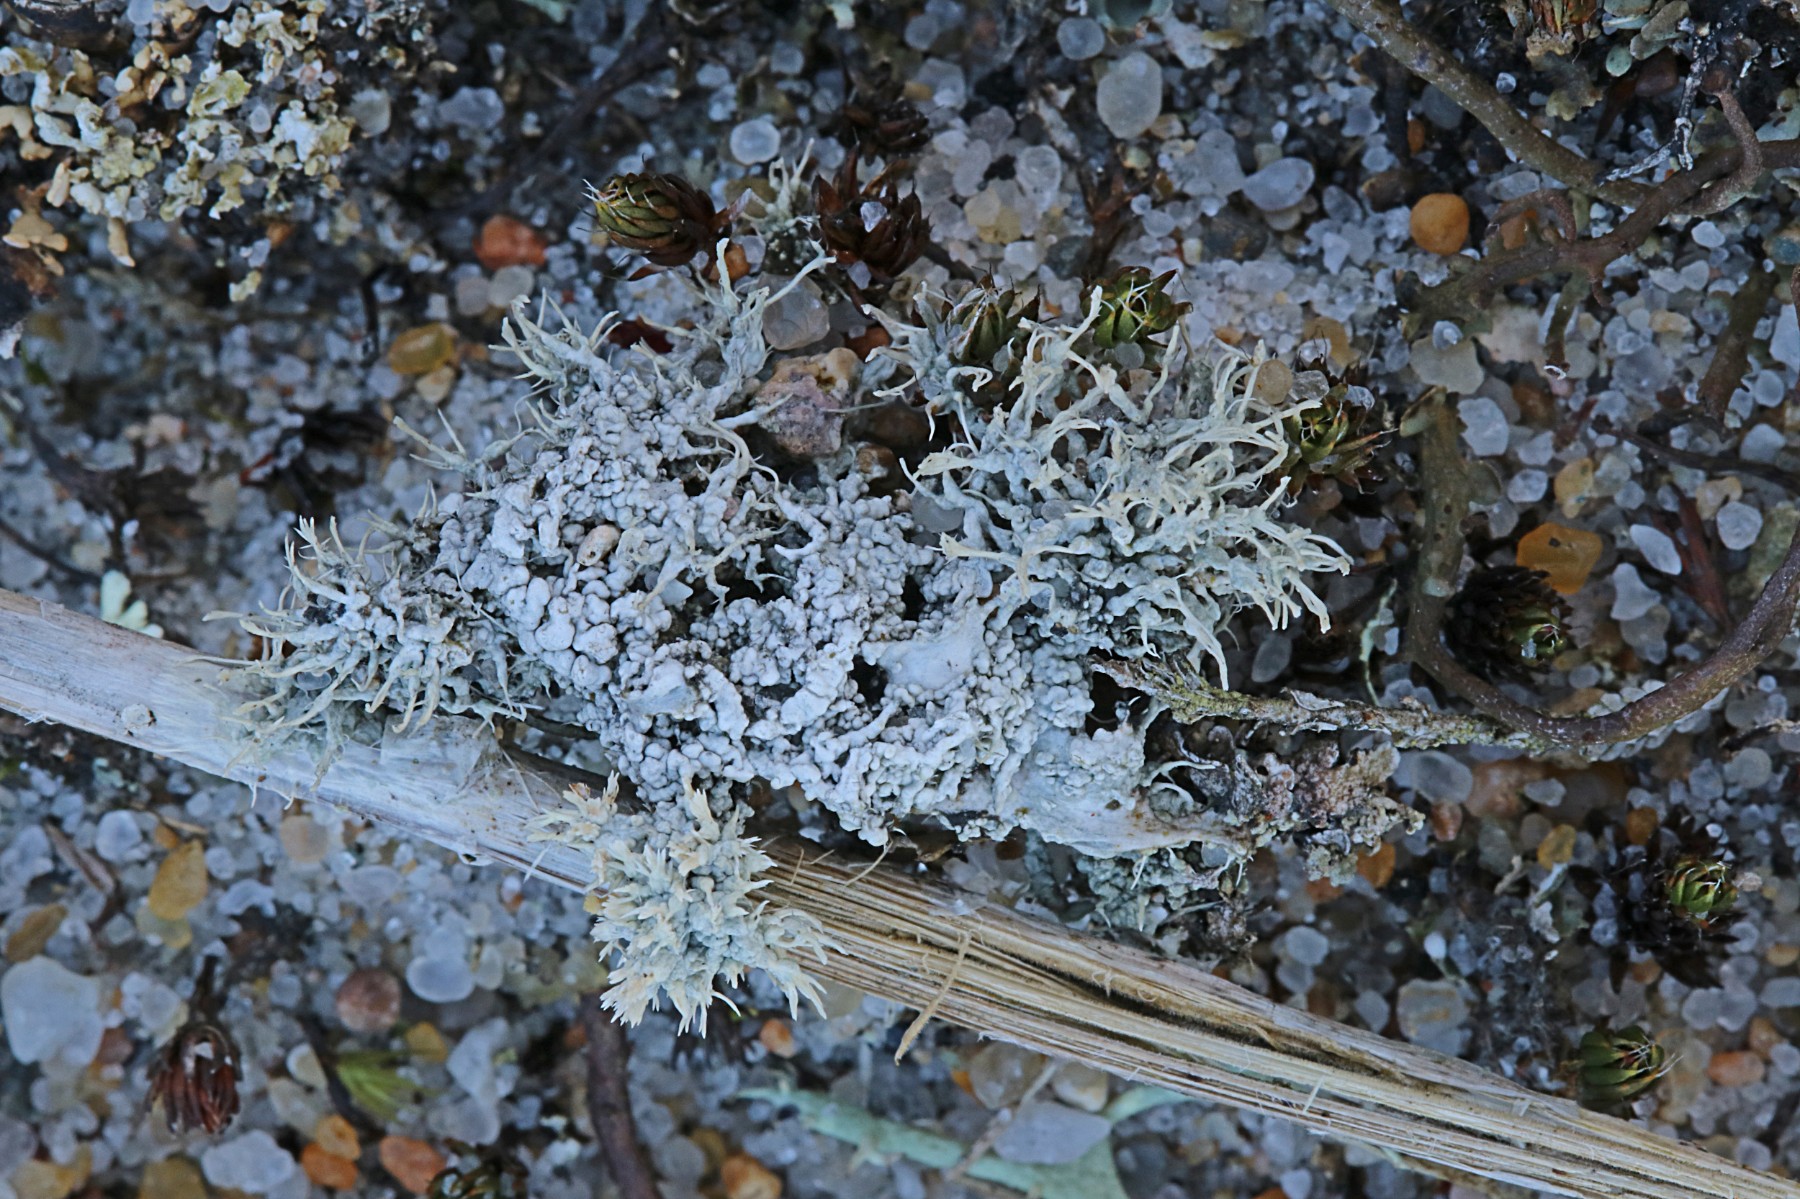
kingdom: Fungi
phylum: Ascomycota
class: Lecanoromycetes
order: Pertusariales
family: Ochrolechiaceae
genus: Ochrolechia
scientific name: Ochrolechia frigida
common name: fjeld-blegskivelav
